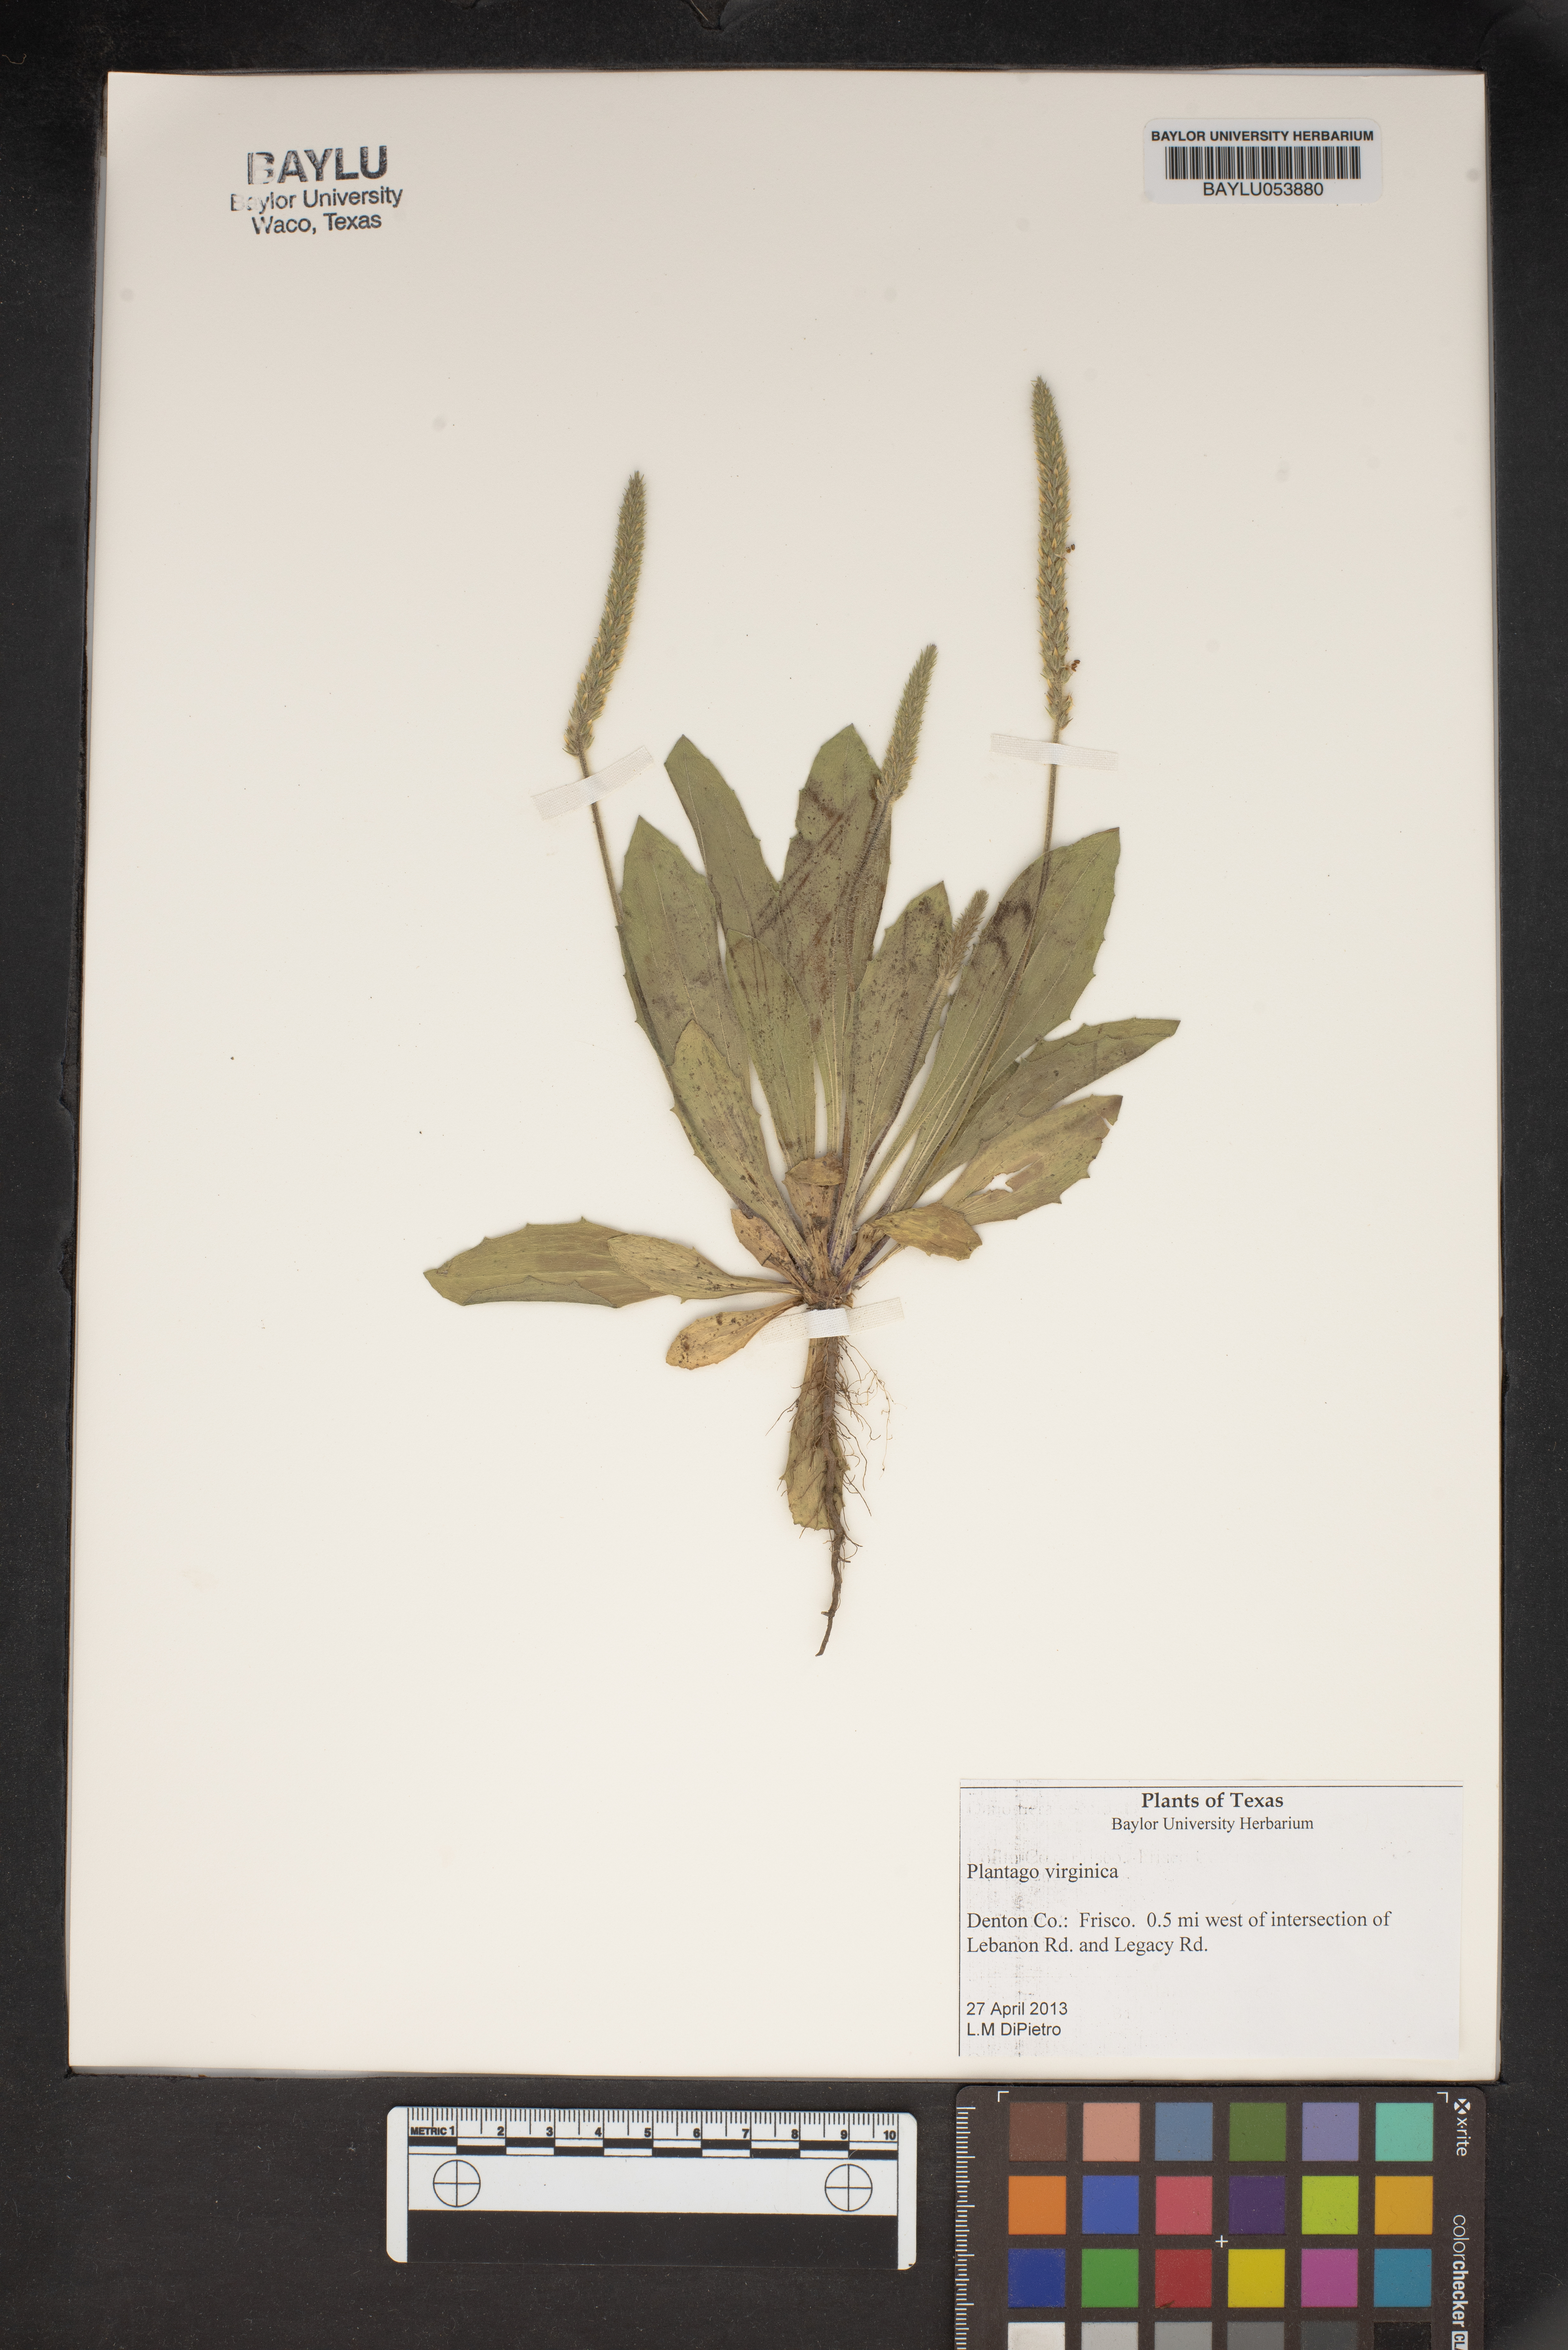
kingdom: Plantae
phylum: Tracheophyta
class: Magnoliopsida
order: Lamiales
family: Plantaginaceae
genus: Plantago
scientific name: Plantago virginica
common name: Hoary plantain
